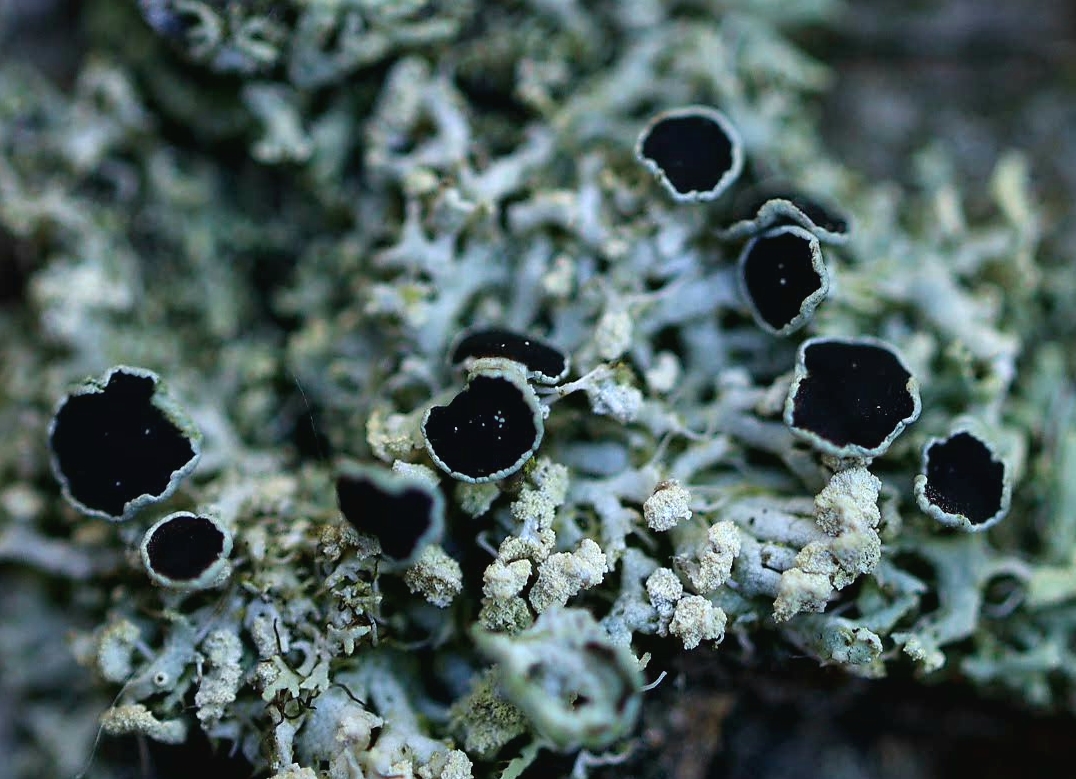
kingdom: Fungi
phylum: Ascomycota
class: Lecanoromycetes
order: Caliciales
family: Physciaceae
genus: Physcia
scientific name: Physcia tenella
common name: spæd rosetlav
